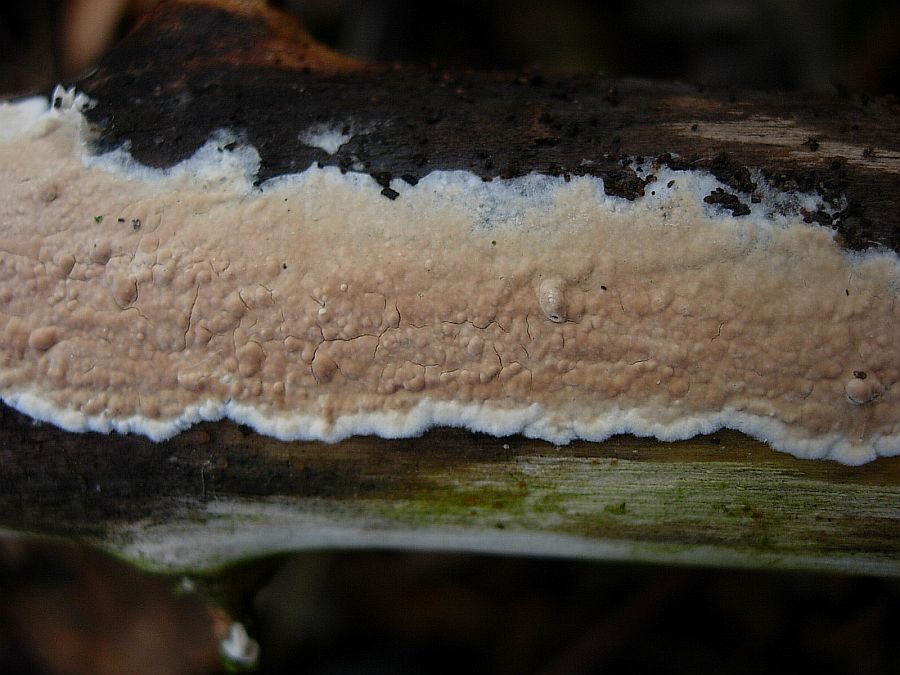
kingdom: Fungi
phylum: Basidiomycota
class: Agaricomycetes
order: Agaricales
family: Physalacriaceae
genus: Cylindrobasidium
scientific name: Cylindrobasidium evolvens
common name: sprækkehinde
